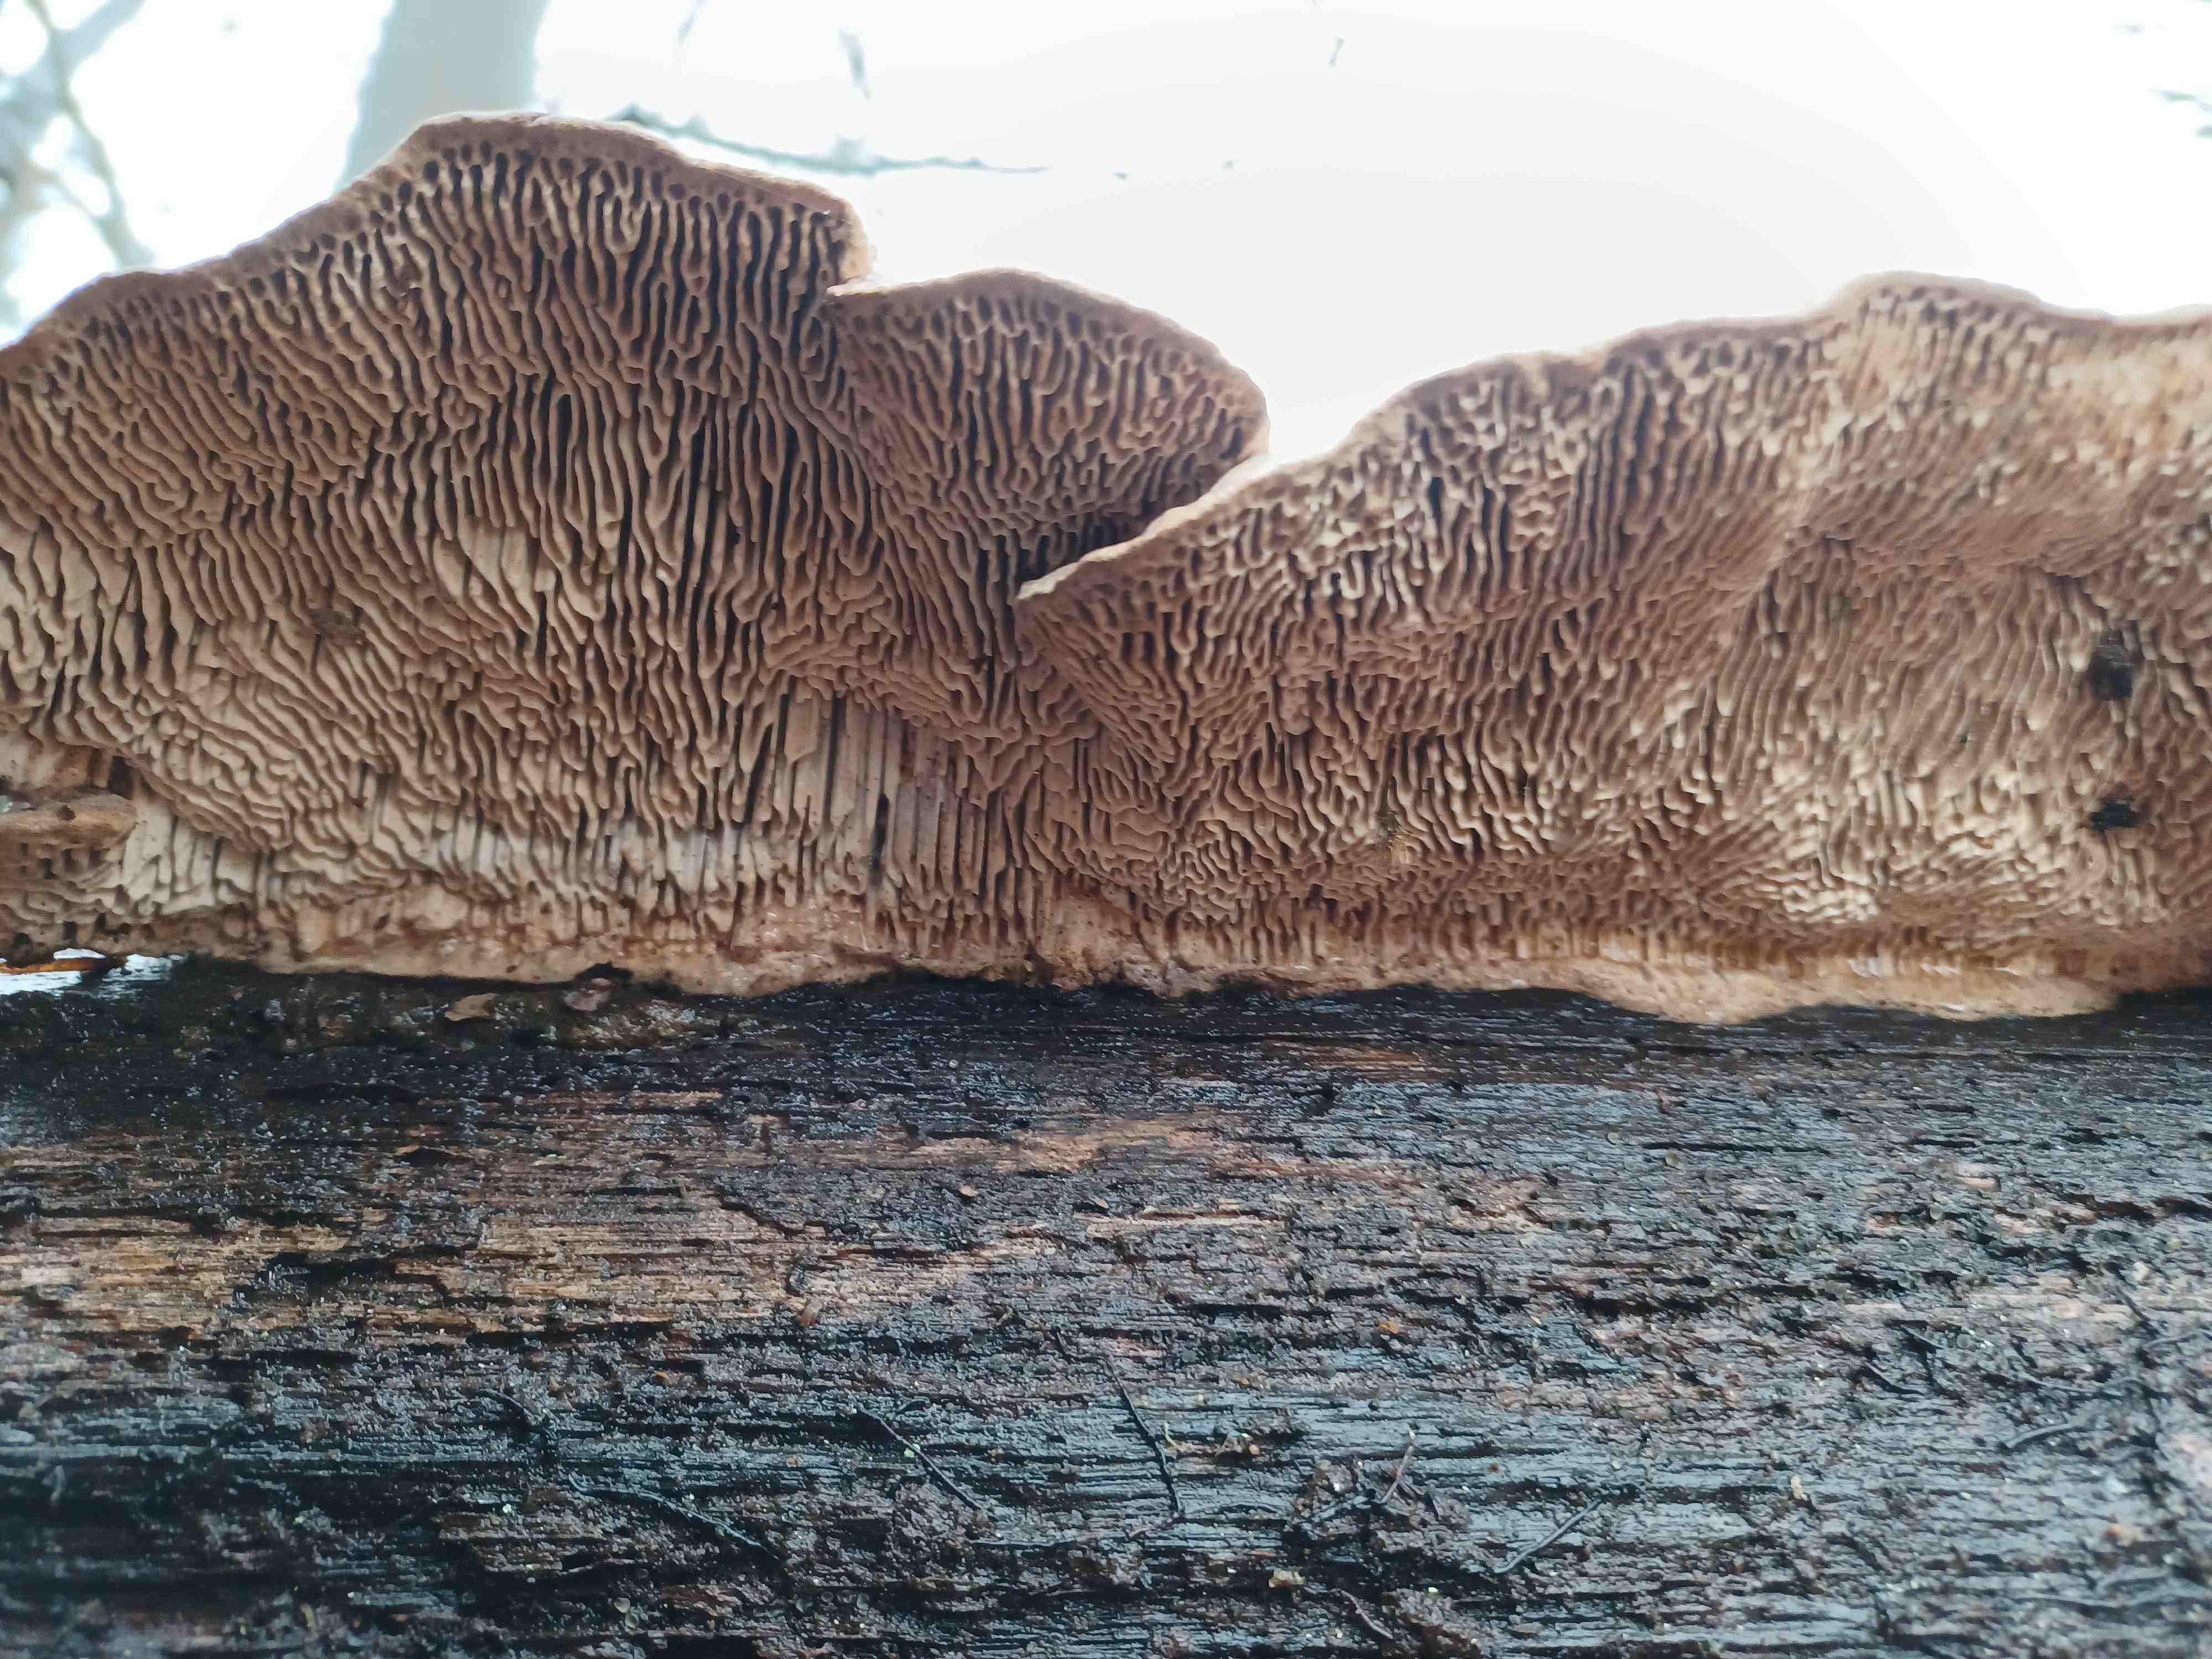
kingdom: Fungi
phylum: Basidiomycota
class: Agaricomycetes
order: Polyporales
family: Fomitopsidaceae
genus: Daedalea
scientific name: Daedalea quercina
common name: ege-labyrintsvamp
